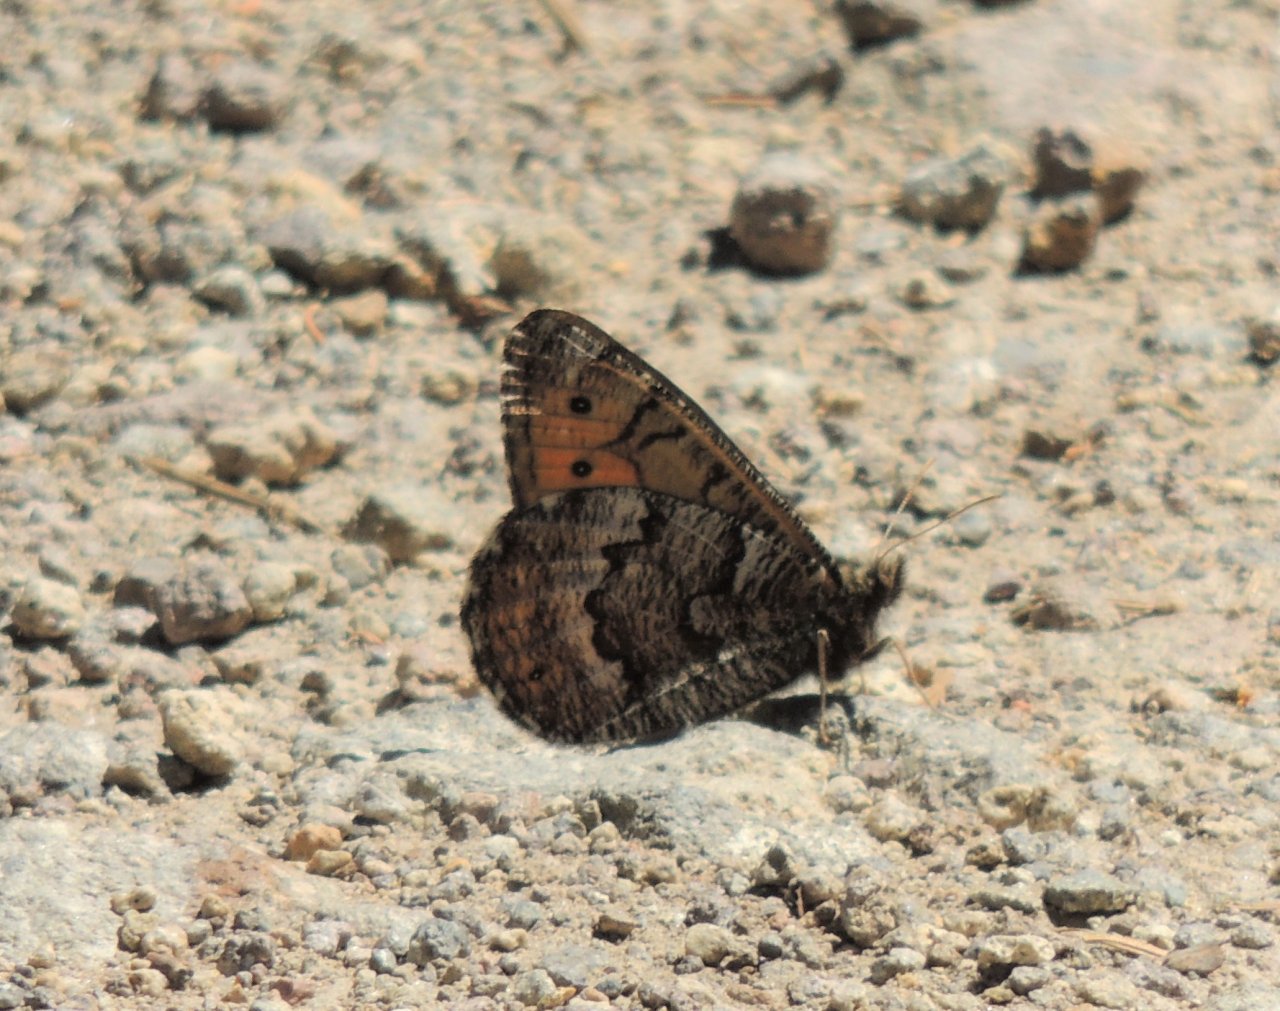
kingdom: Animalia
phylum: Arthropoda
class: Insecta
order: Lepidoptera
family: Nymphalidae
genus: Oeneis
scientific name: Oeneis chryxus
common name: Chryxus Arctic
